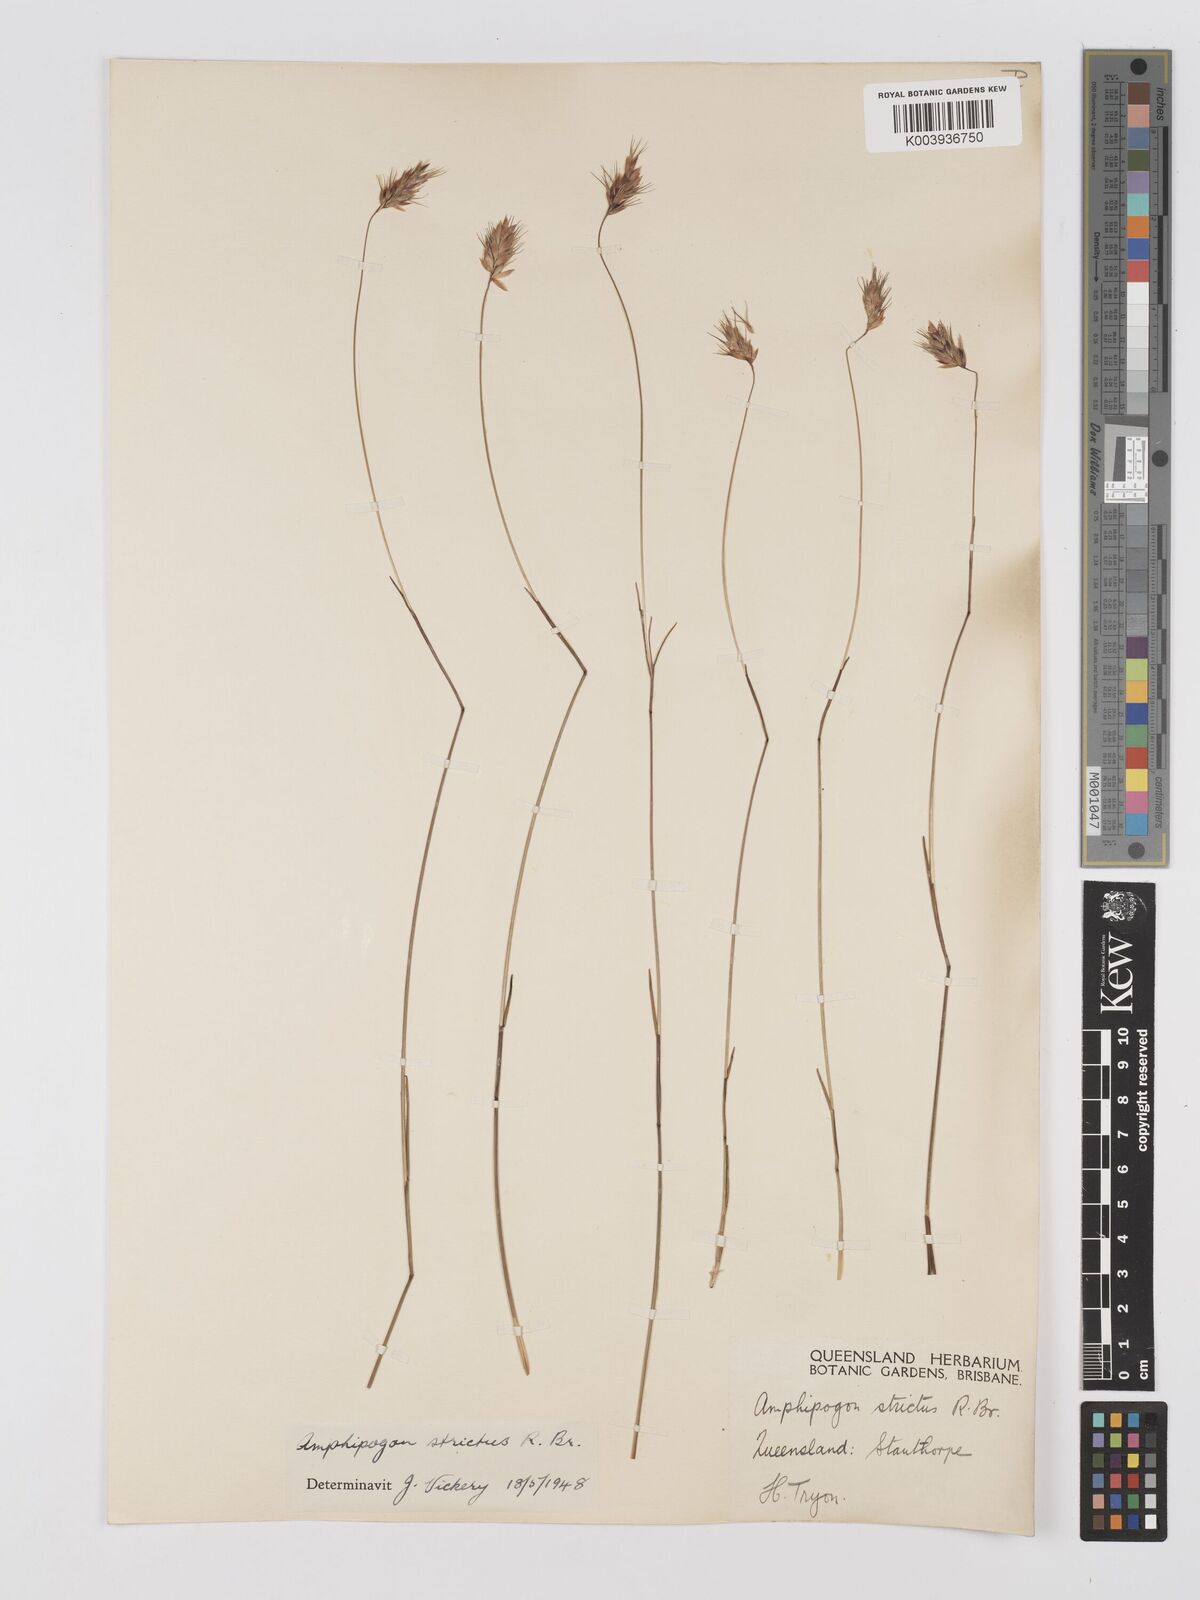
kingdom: Plantae
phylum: Tracheophyta
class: Liliopsida
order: Poales
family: Poaceae
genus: Amphipogon
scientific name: Amphipogon strictus
